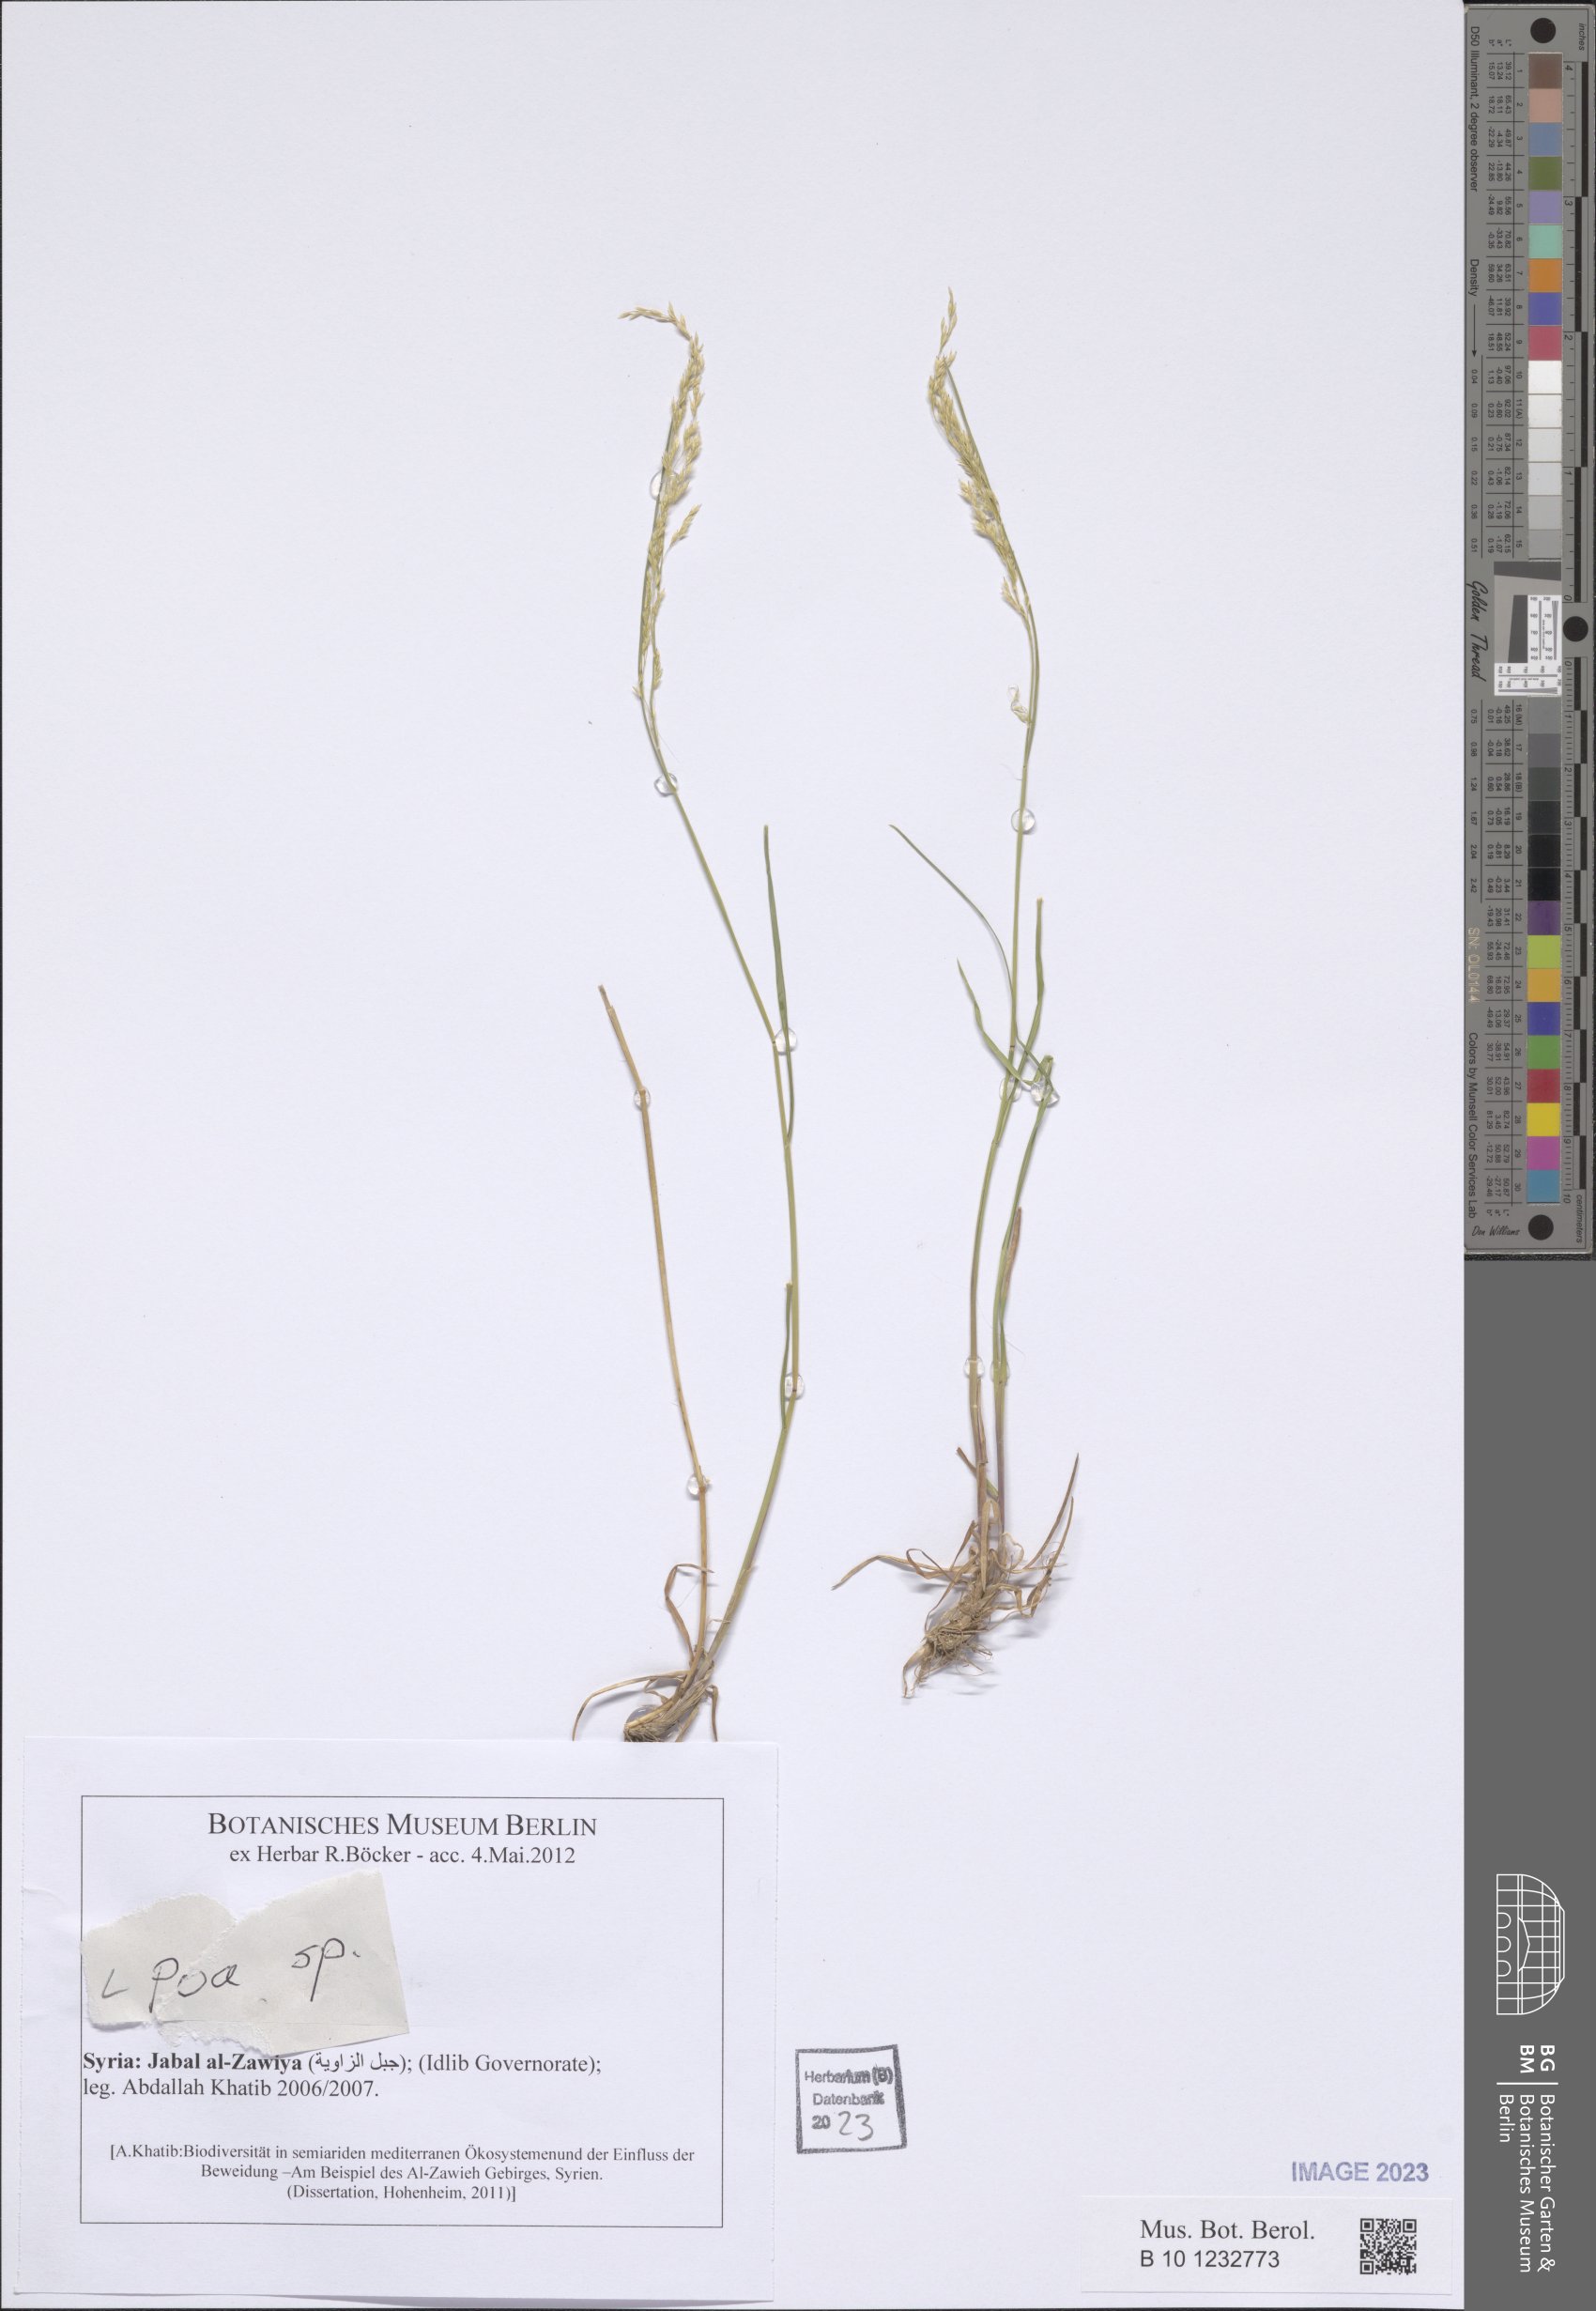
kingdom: Plantae
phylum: Tracheophyta
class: Liliopsida
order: Poales
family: Poaceae
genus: Poa
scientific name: Poa
